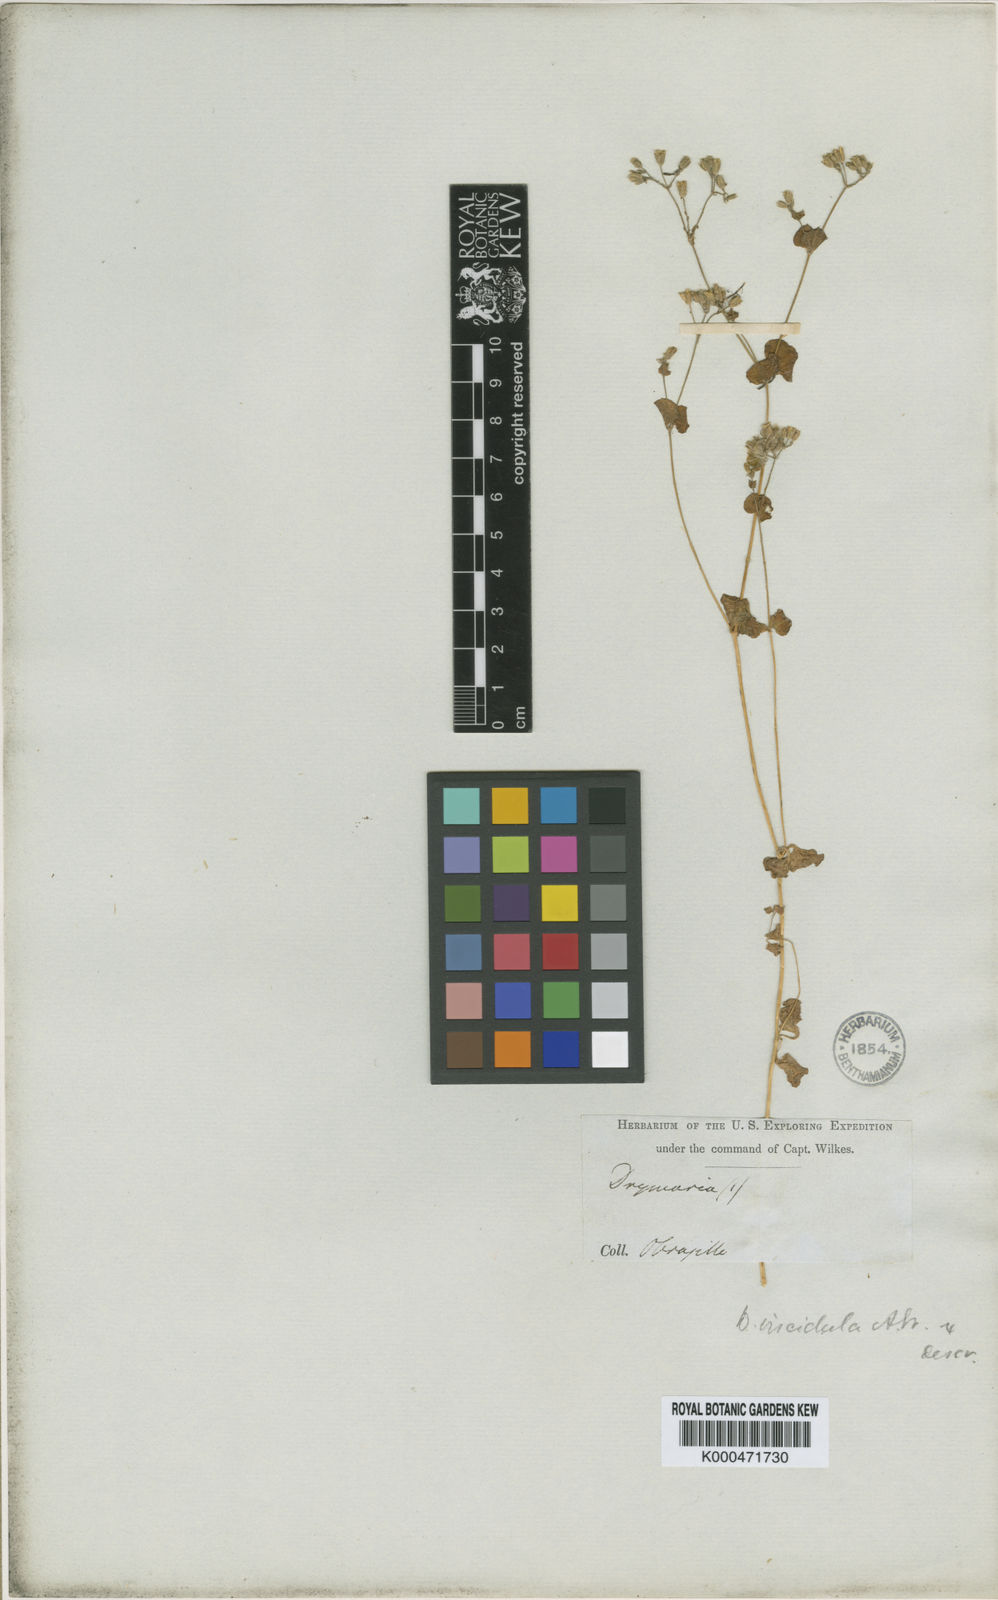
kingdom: Plantae
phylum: Tracheophyta
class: Magnoliopsida
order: Caryophyllales
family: Caryophyllaceae
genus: Drymaria
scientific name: Drymaria divaricata
